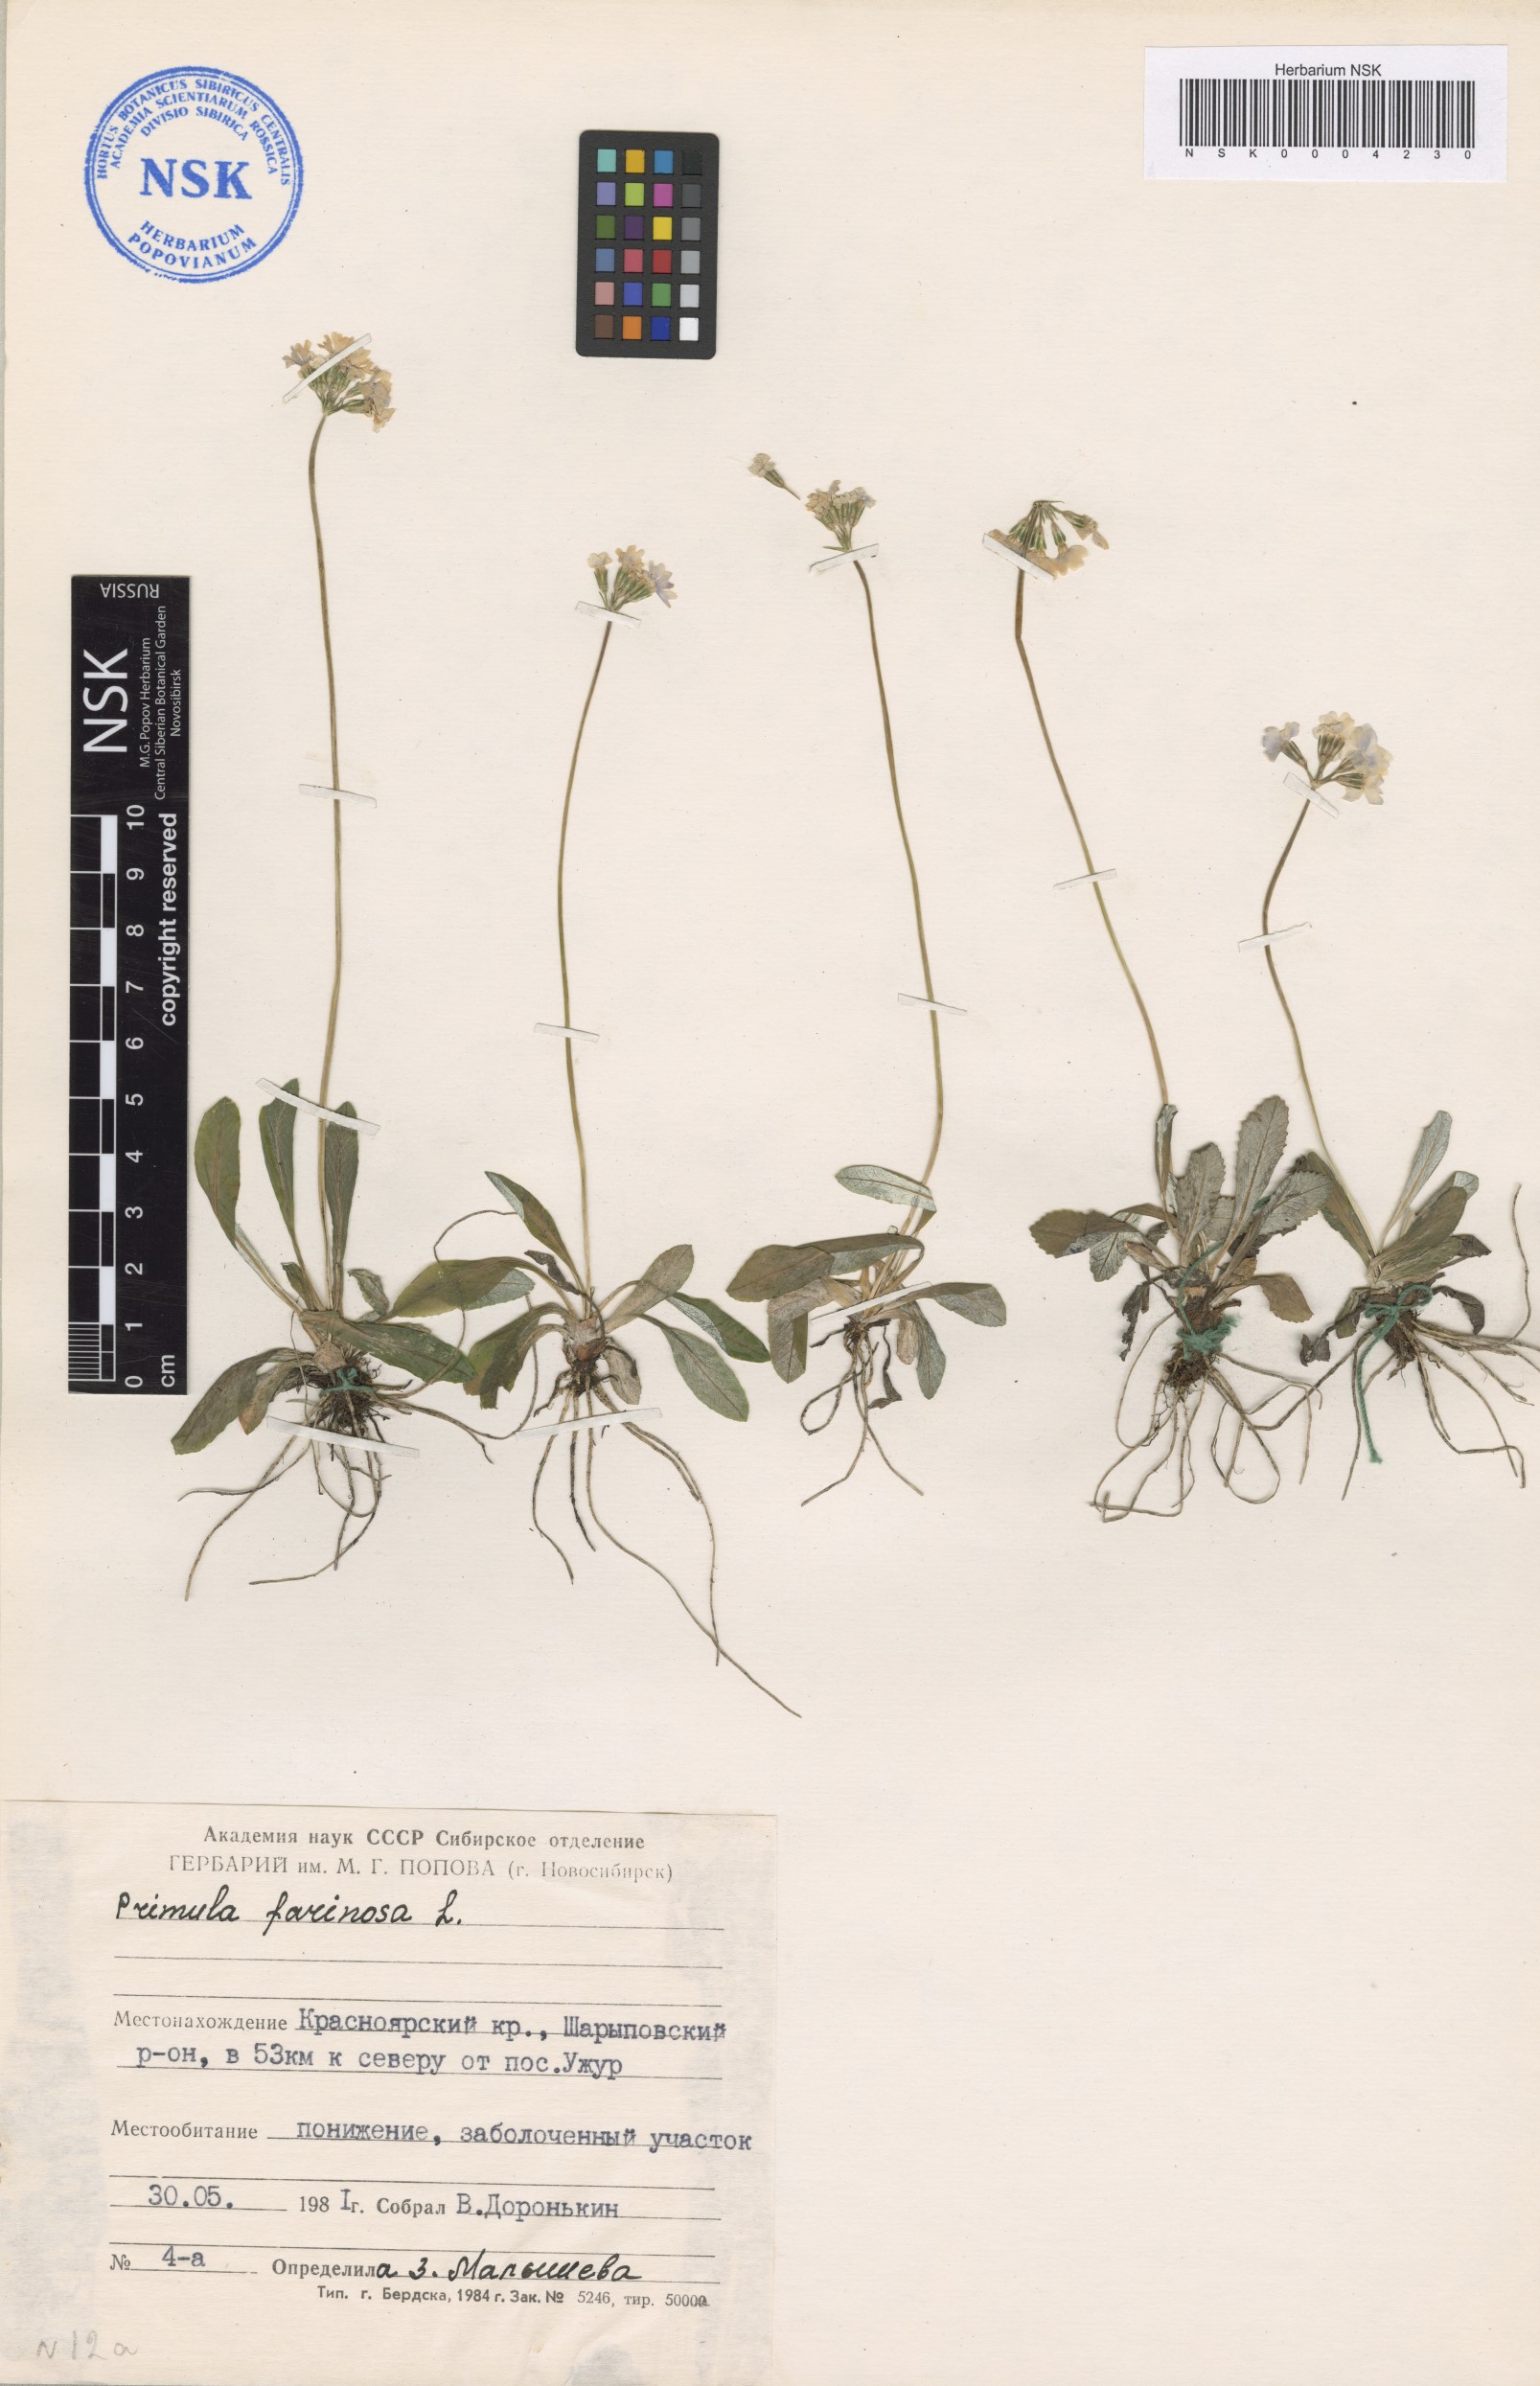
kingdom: Plantae
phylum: Tracheophyta
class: Magnoliopsida
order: Ericales
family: Primulaceae
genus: Primula
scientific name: Primula farinosa
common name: Bird's-eye primrose
